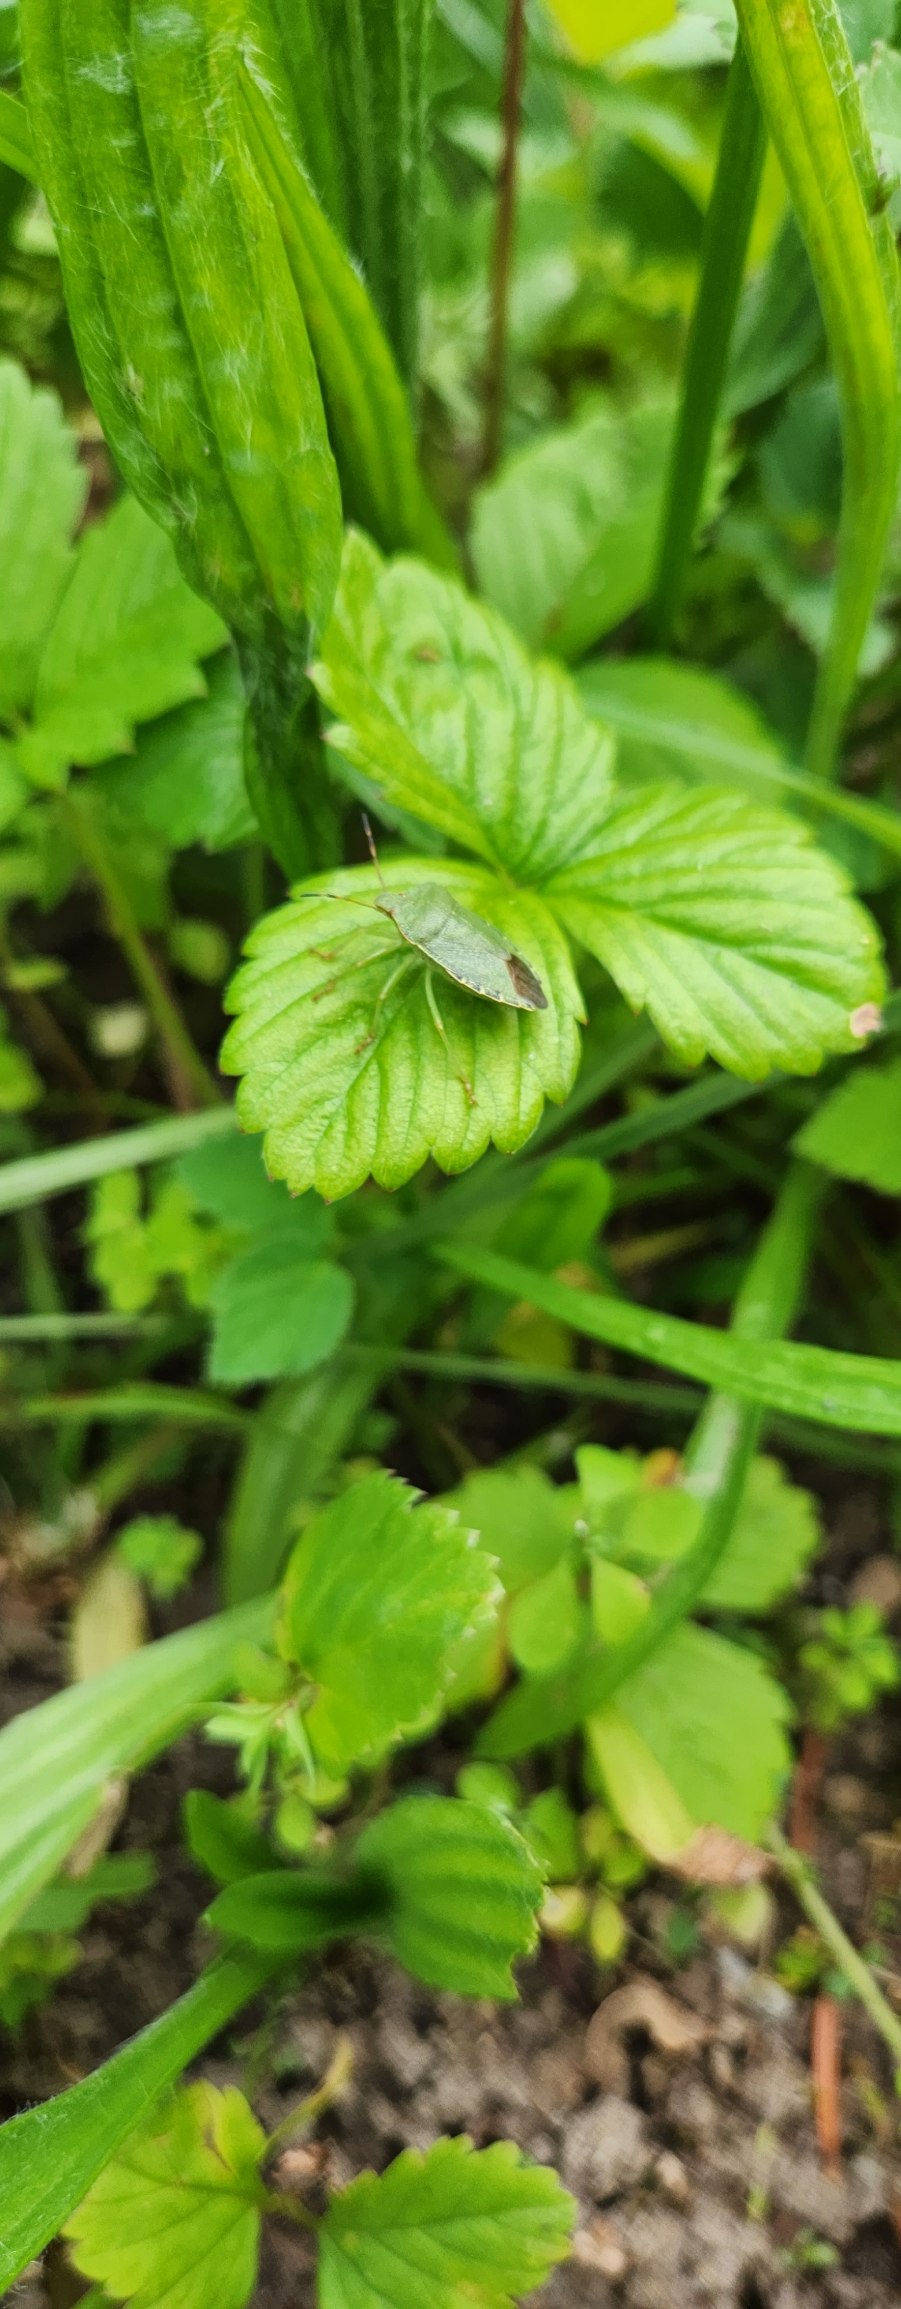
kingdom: Animalia
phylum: Arthropoda
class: Insecta
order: Hemiptera
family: Pentatomidae
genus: Palomena
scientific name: Palomena prasina
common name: Grøn bredtæge
